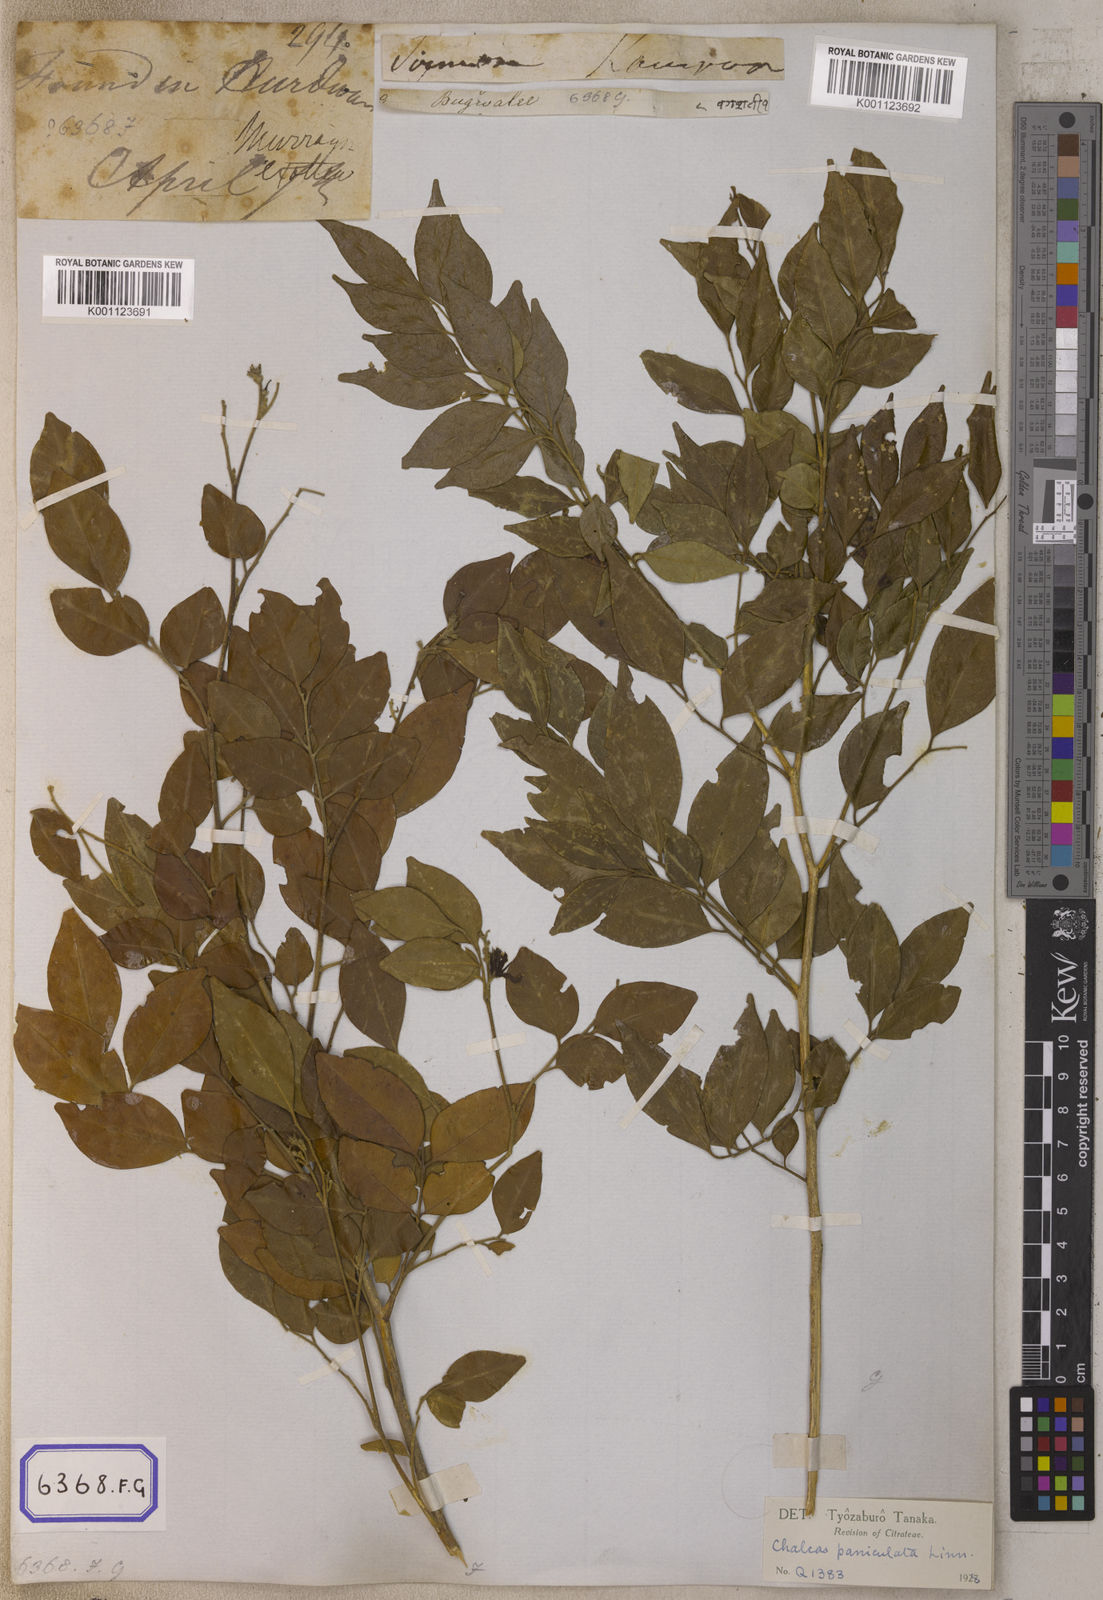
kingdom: Plantae
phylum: Tracheophyta
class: Magnoliopsida
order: Sapindales
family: Rutaceae
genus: Murraya
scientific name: Murraya paniculata
